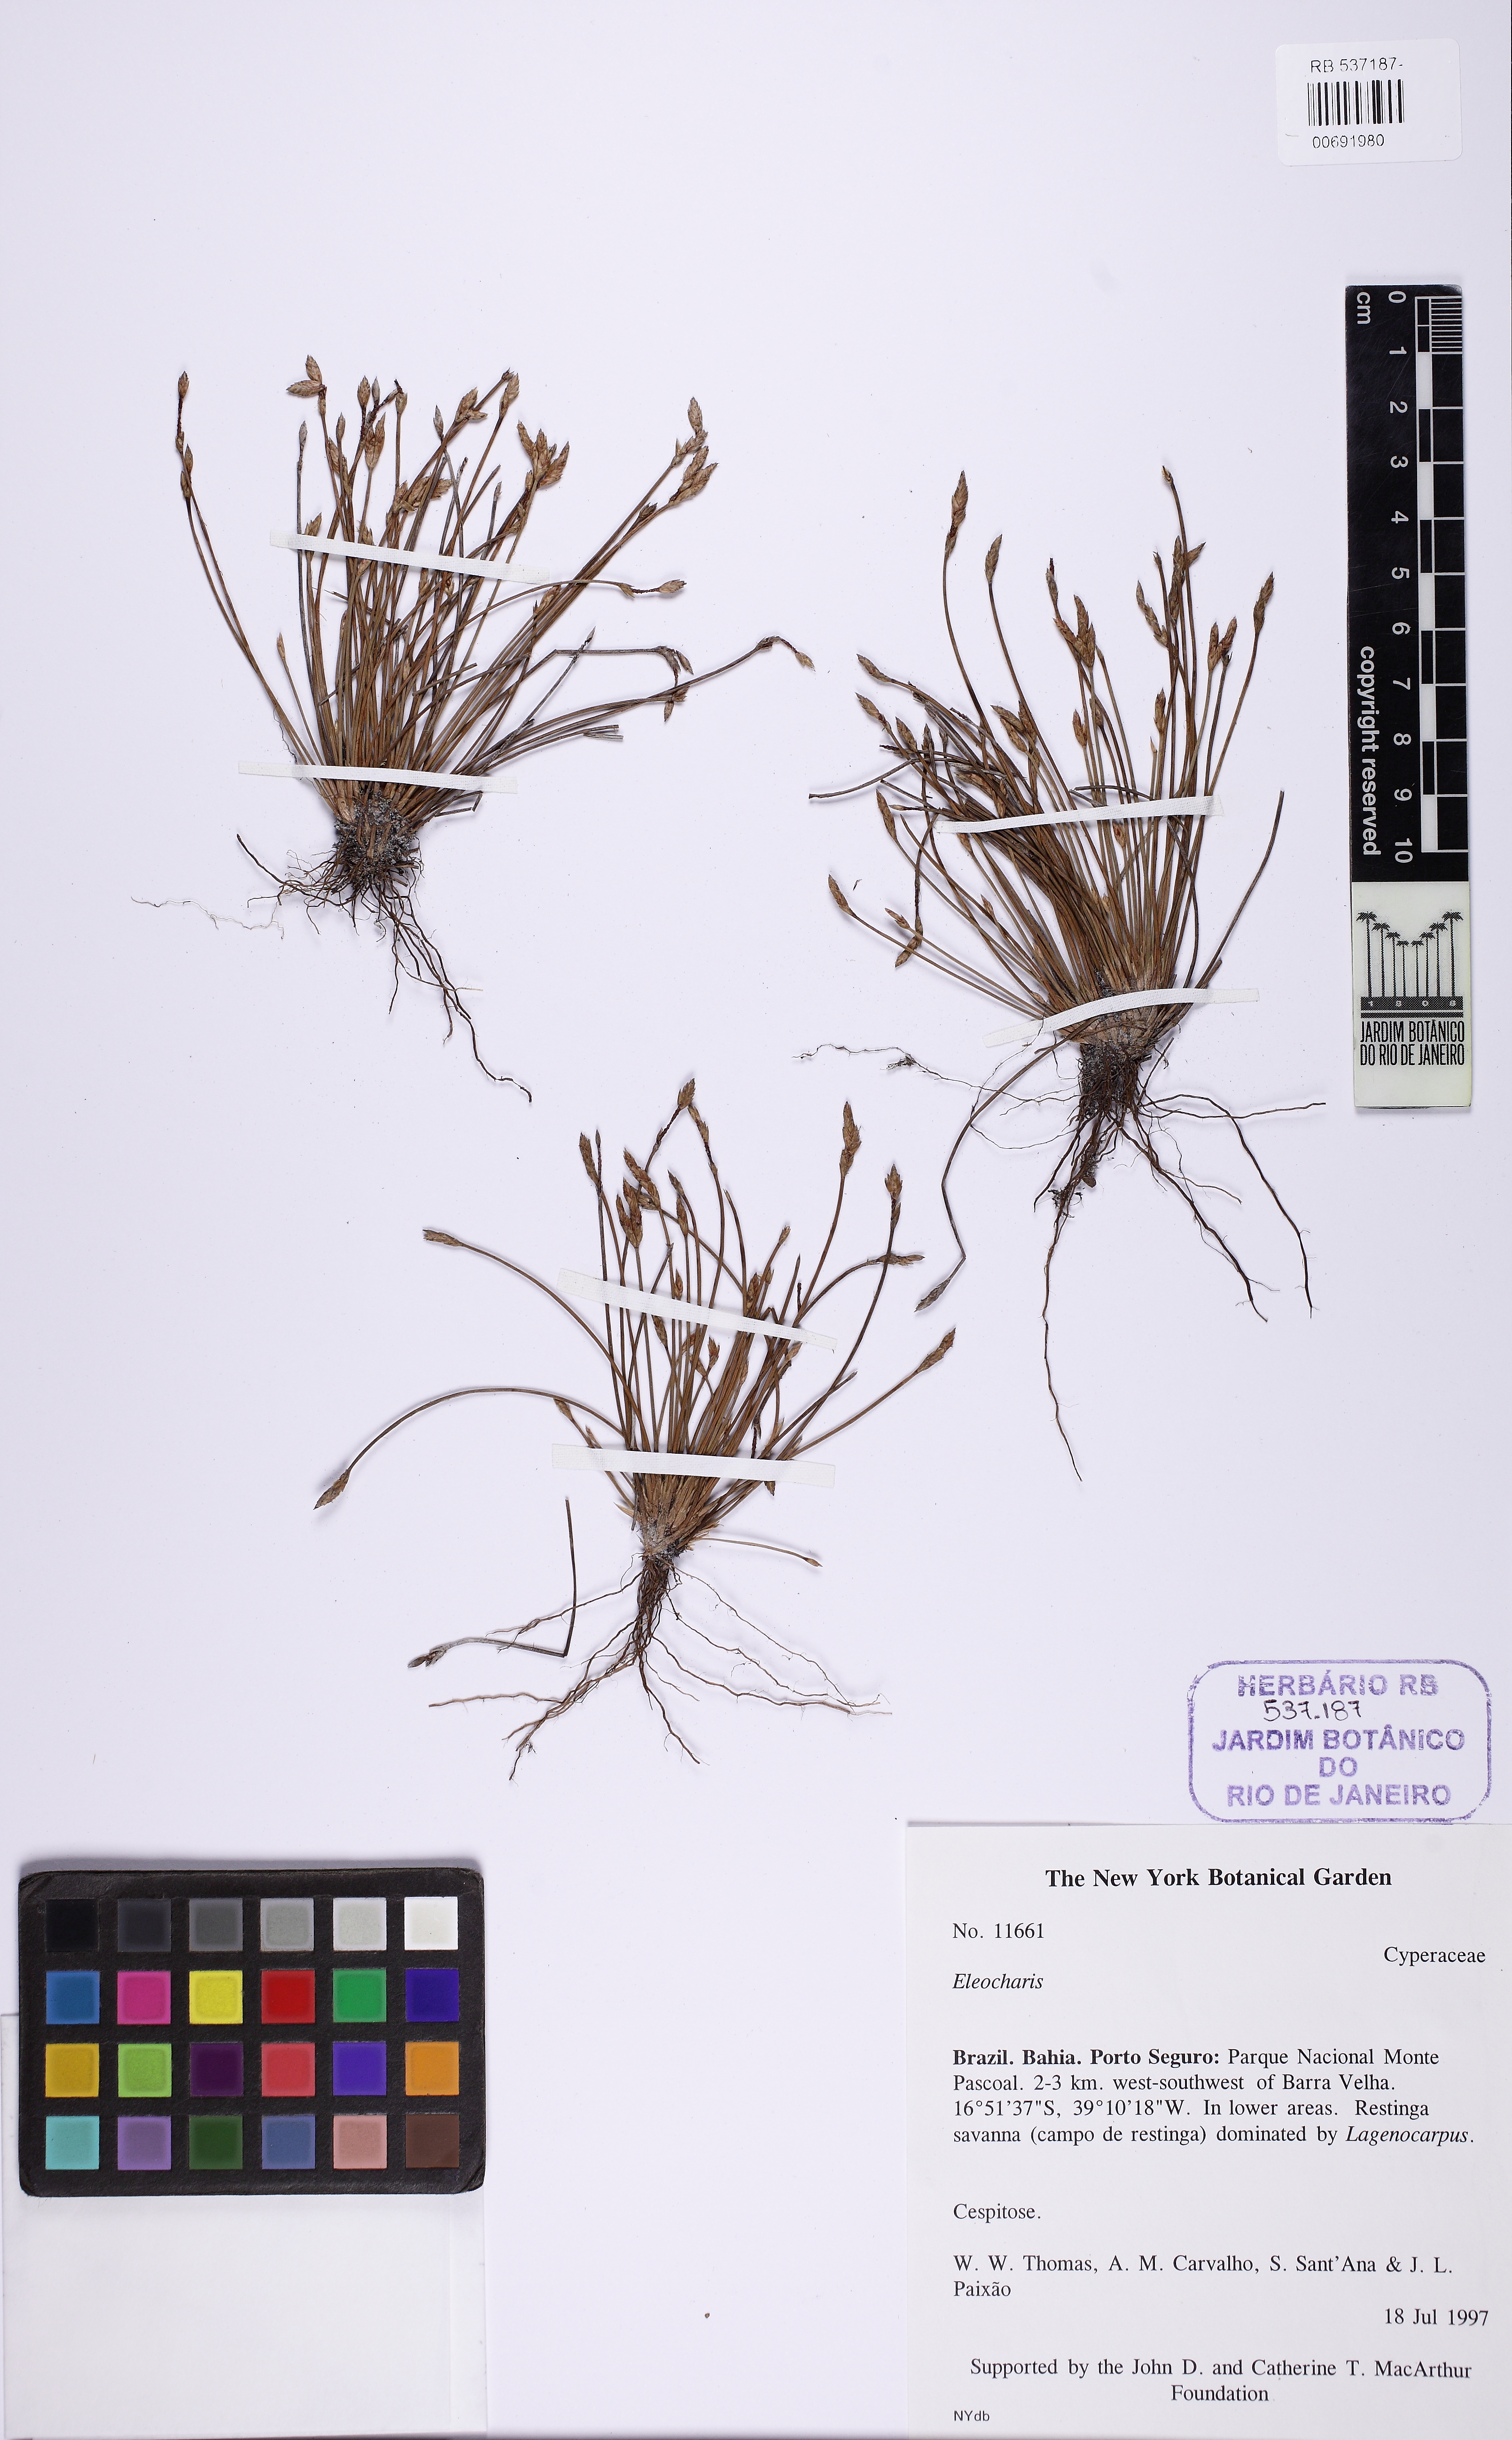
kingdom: Plantae
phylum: Tracheophyta
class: Liliopsida
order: Poales
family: Cyperaceae
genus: Eleocharis
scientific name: Eleocharis
